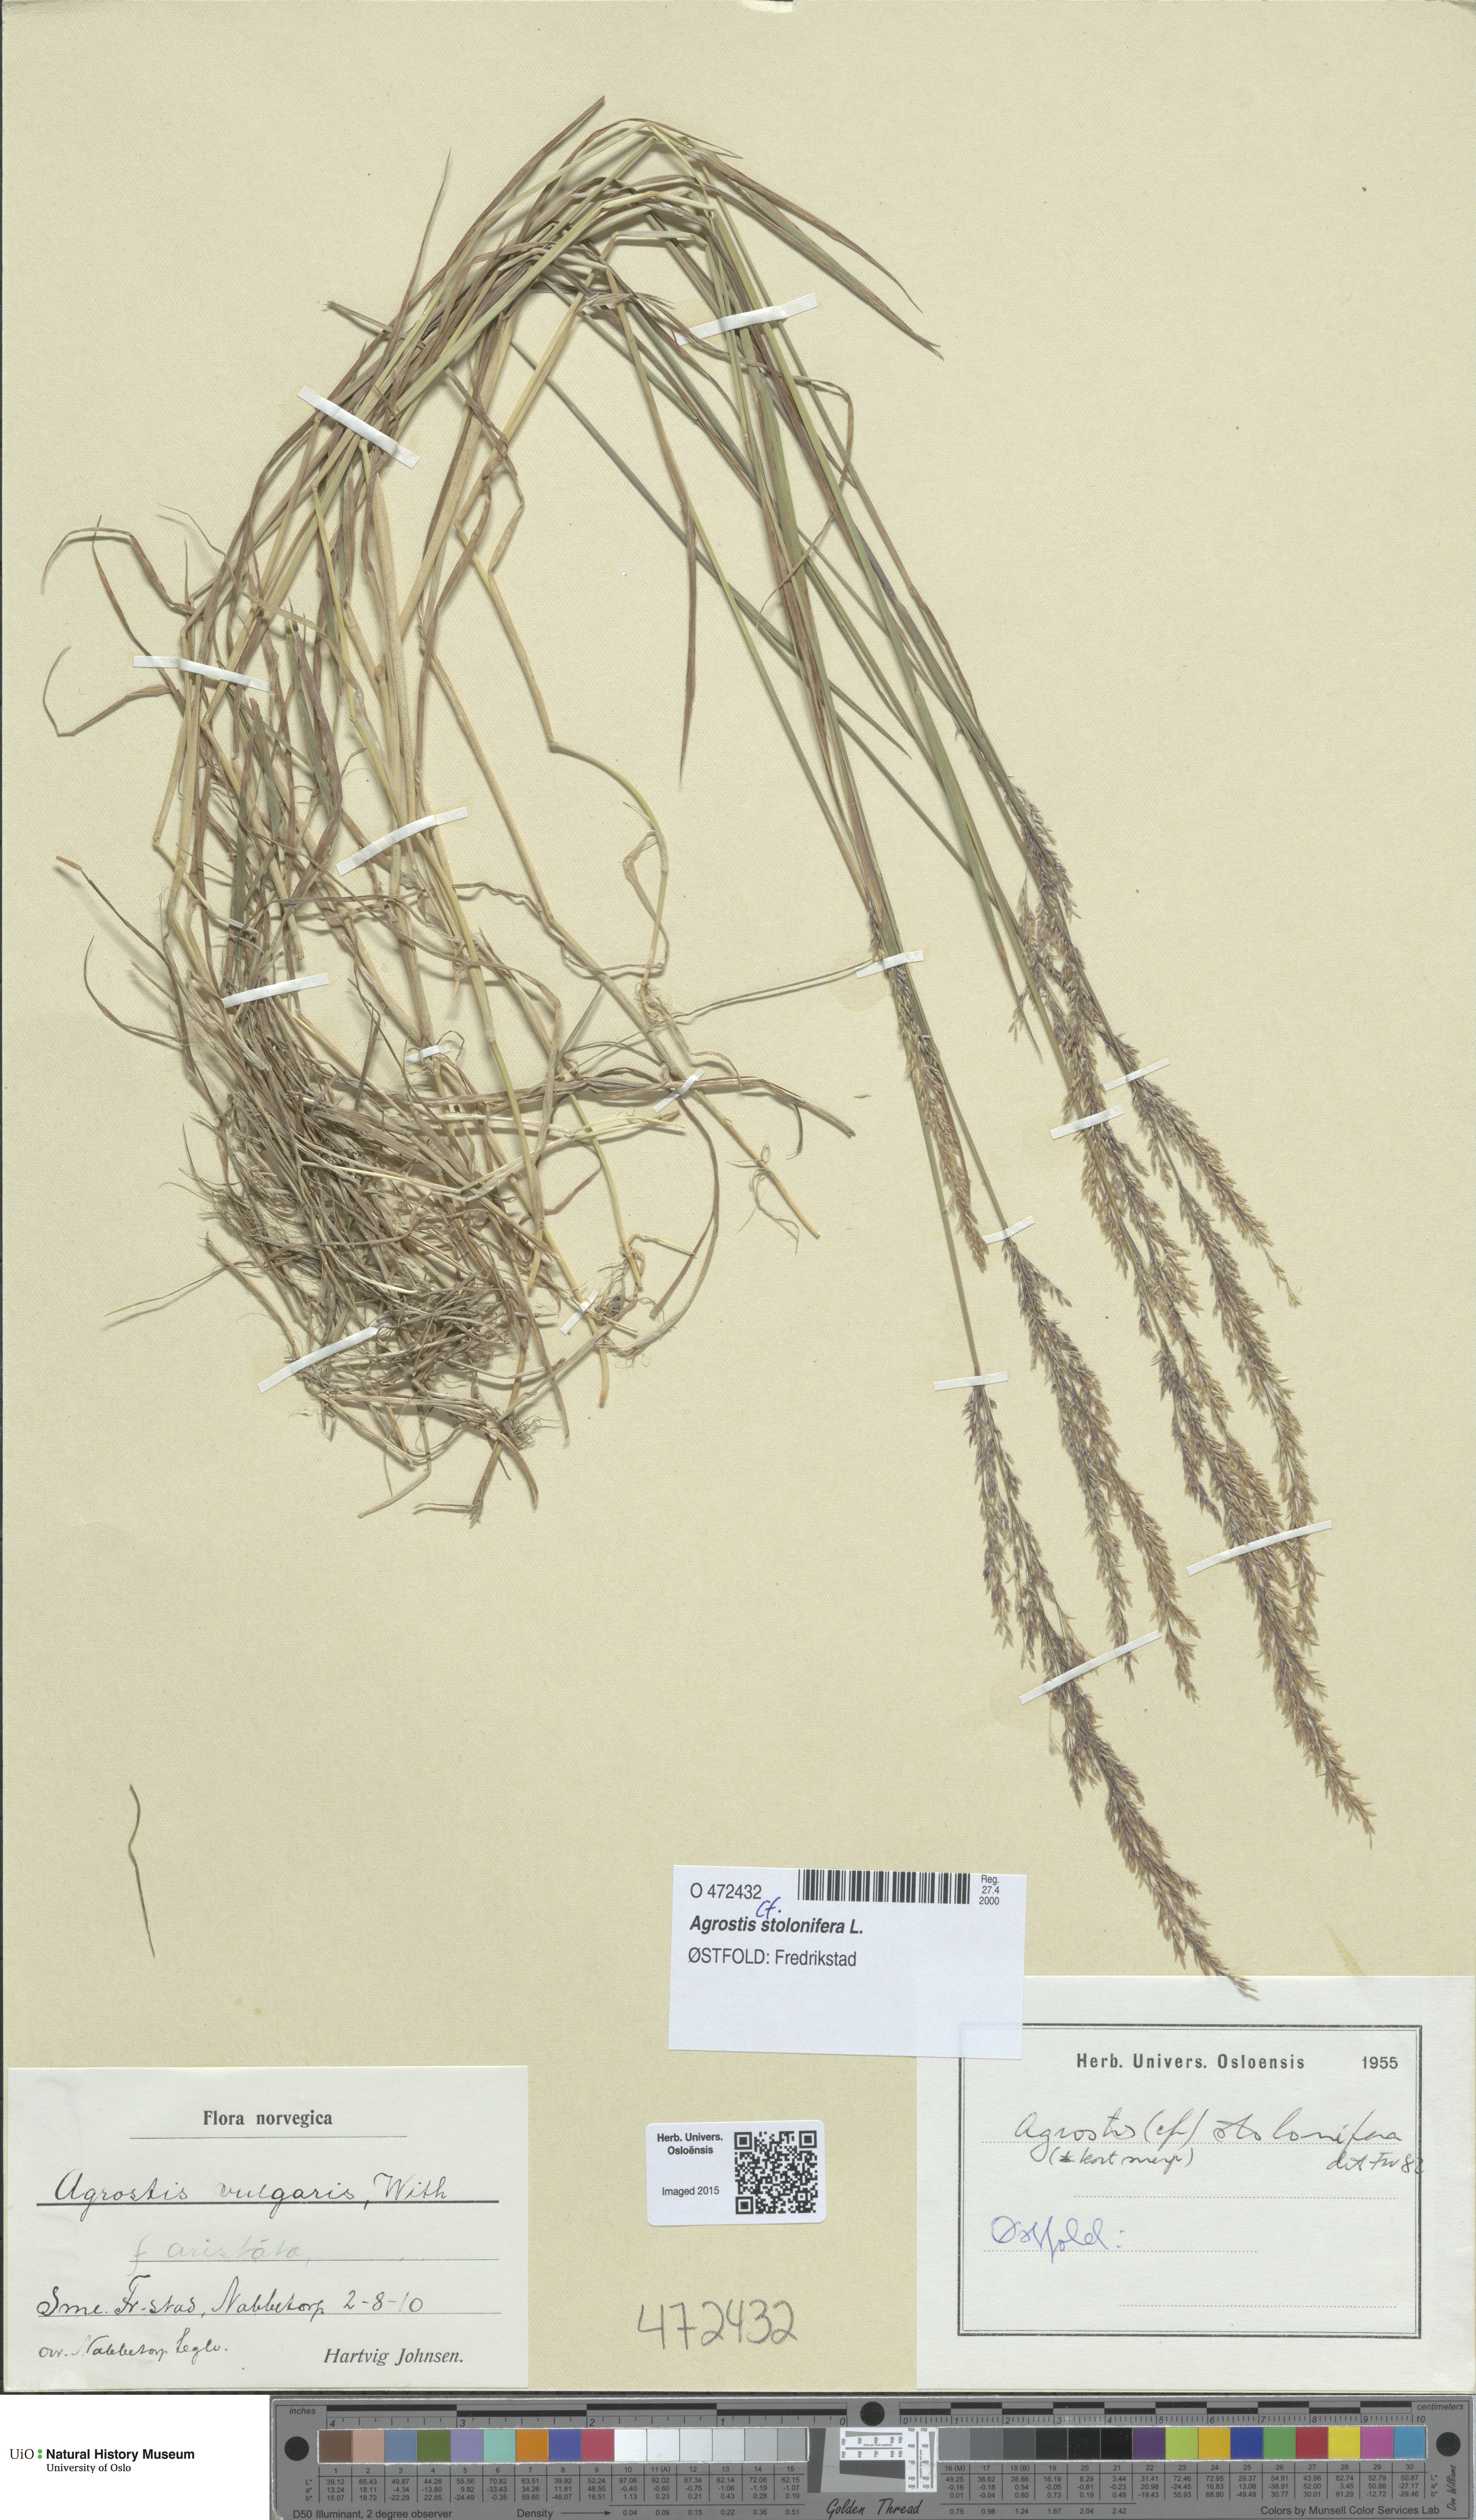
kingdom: Plantae
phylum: Tracheophyta
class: Liliopsida
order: Poales
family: Poaceae
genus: Agrostis
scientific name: Agrostis stolonifera
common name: Creeping bentgrass
